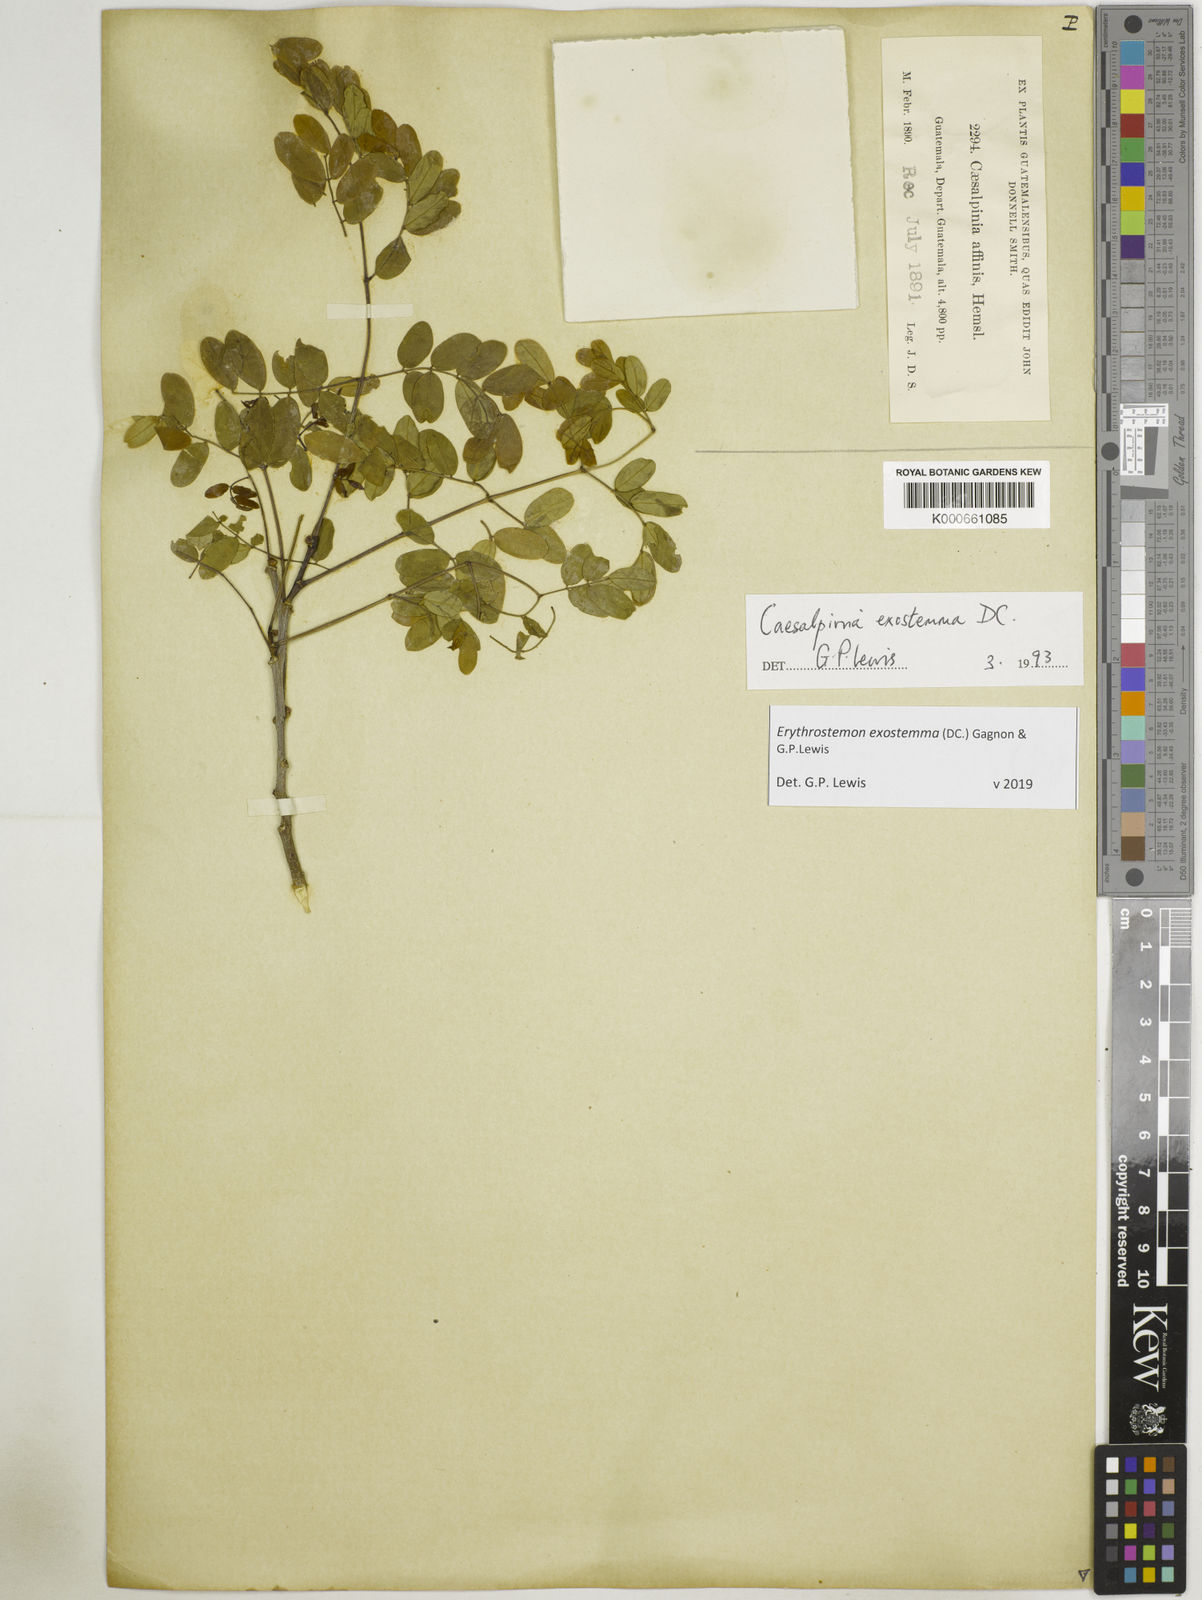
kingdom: Plantae
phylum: Tracheophyta
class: Magnoliopsida
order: Fabales
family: Fabaceae
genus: Erythrostemon
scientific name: Erythrostemon exostemma
